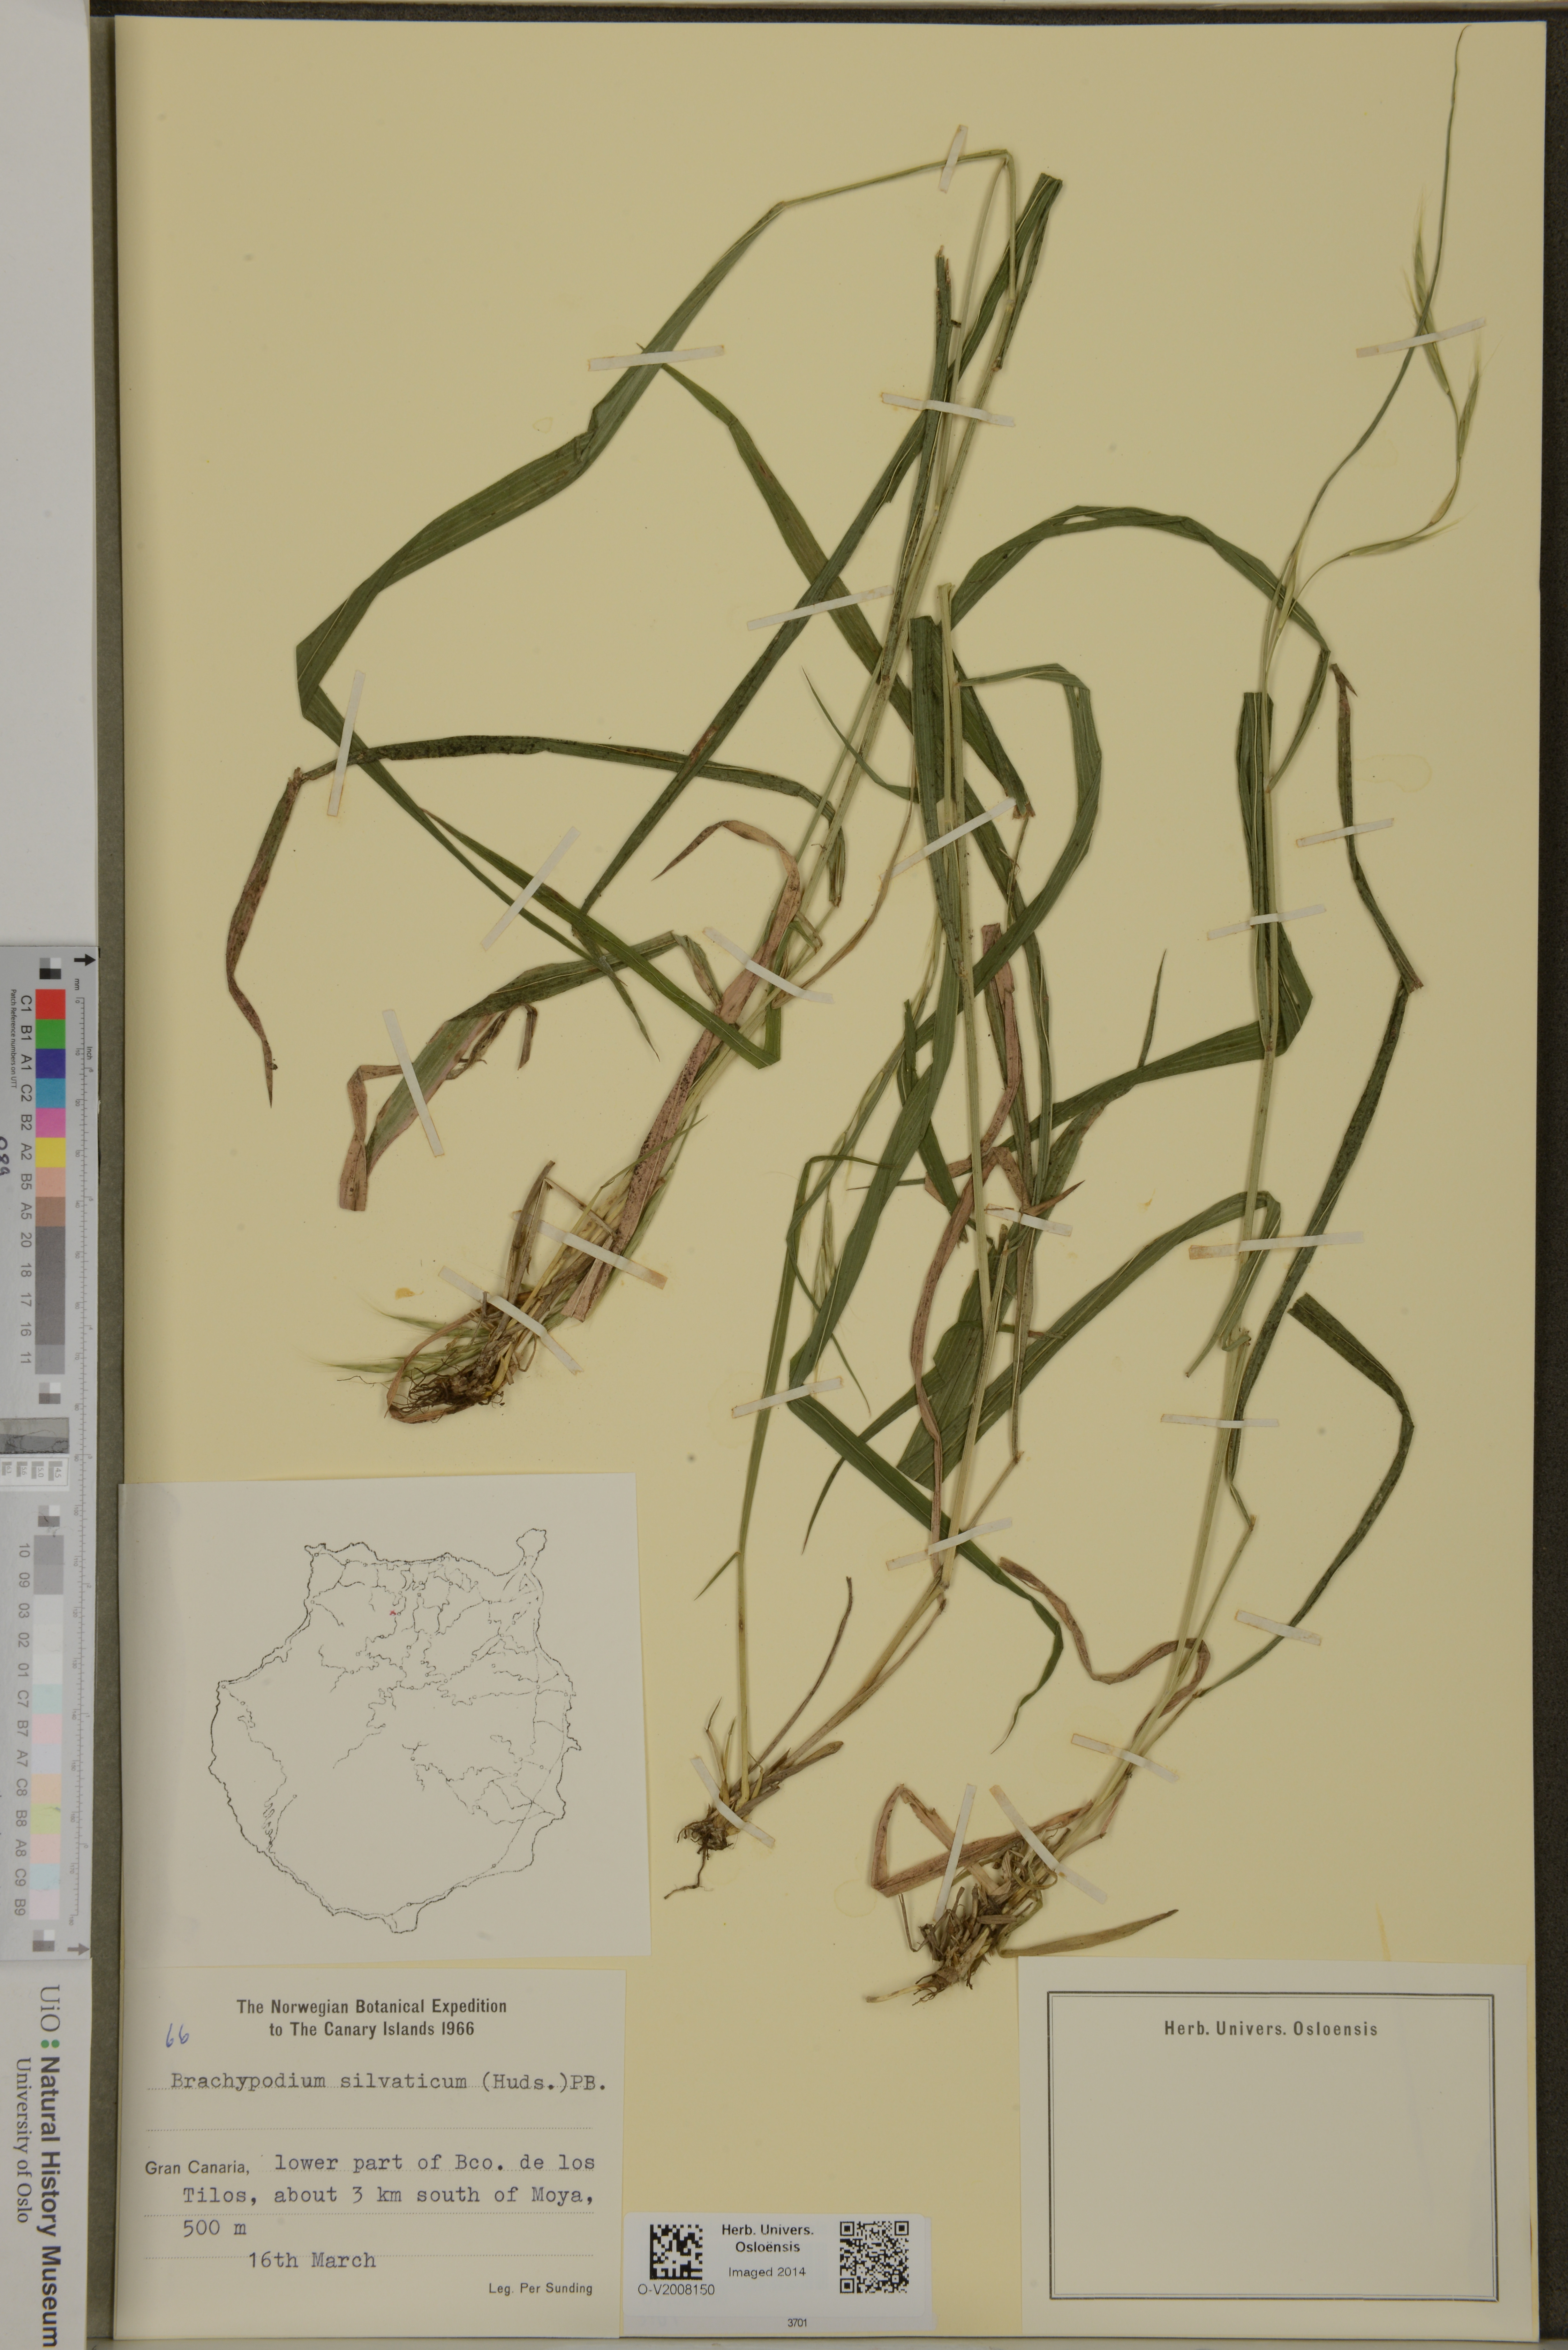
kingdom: Plantae
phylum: Tracheophyta
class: Liliopsida
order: Poales
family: Poaceae
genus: Brachypodium
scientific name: Brachypodium sylvaticum
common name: False-brome
